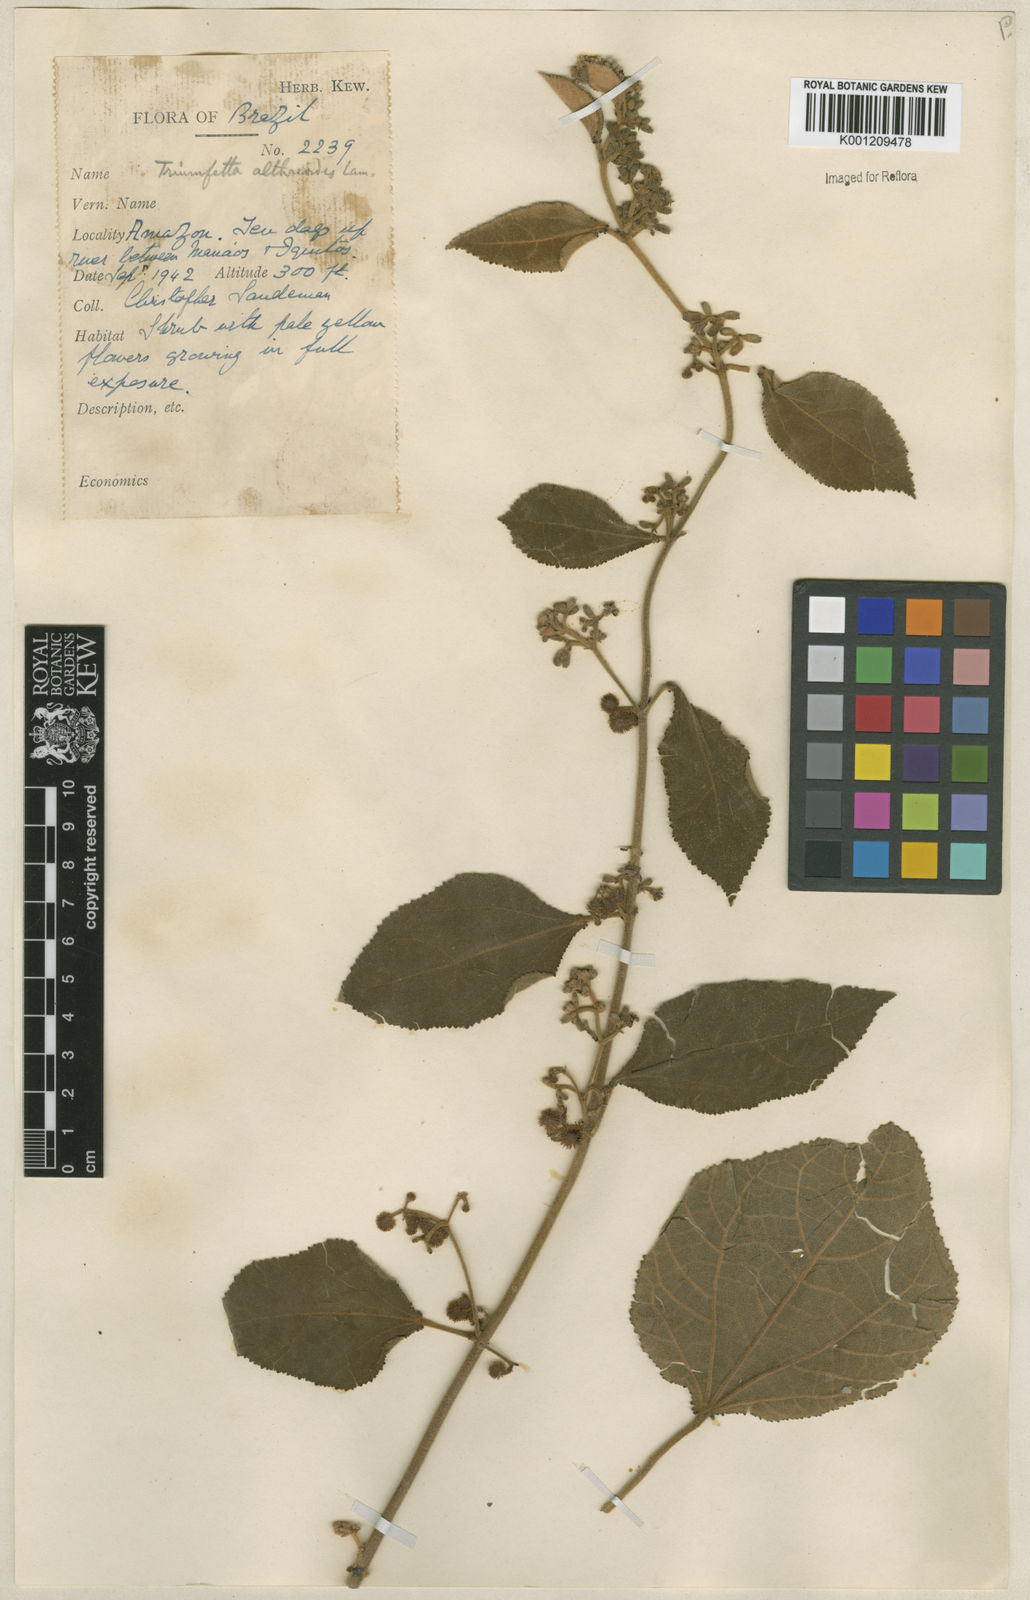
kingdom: Plantae
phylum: Tracheophyta
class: Magnoliopsida
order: Malvales
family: Malvaceae
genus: Triumfetta
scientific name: Triumfetta althaeoides
